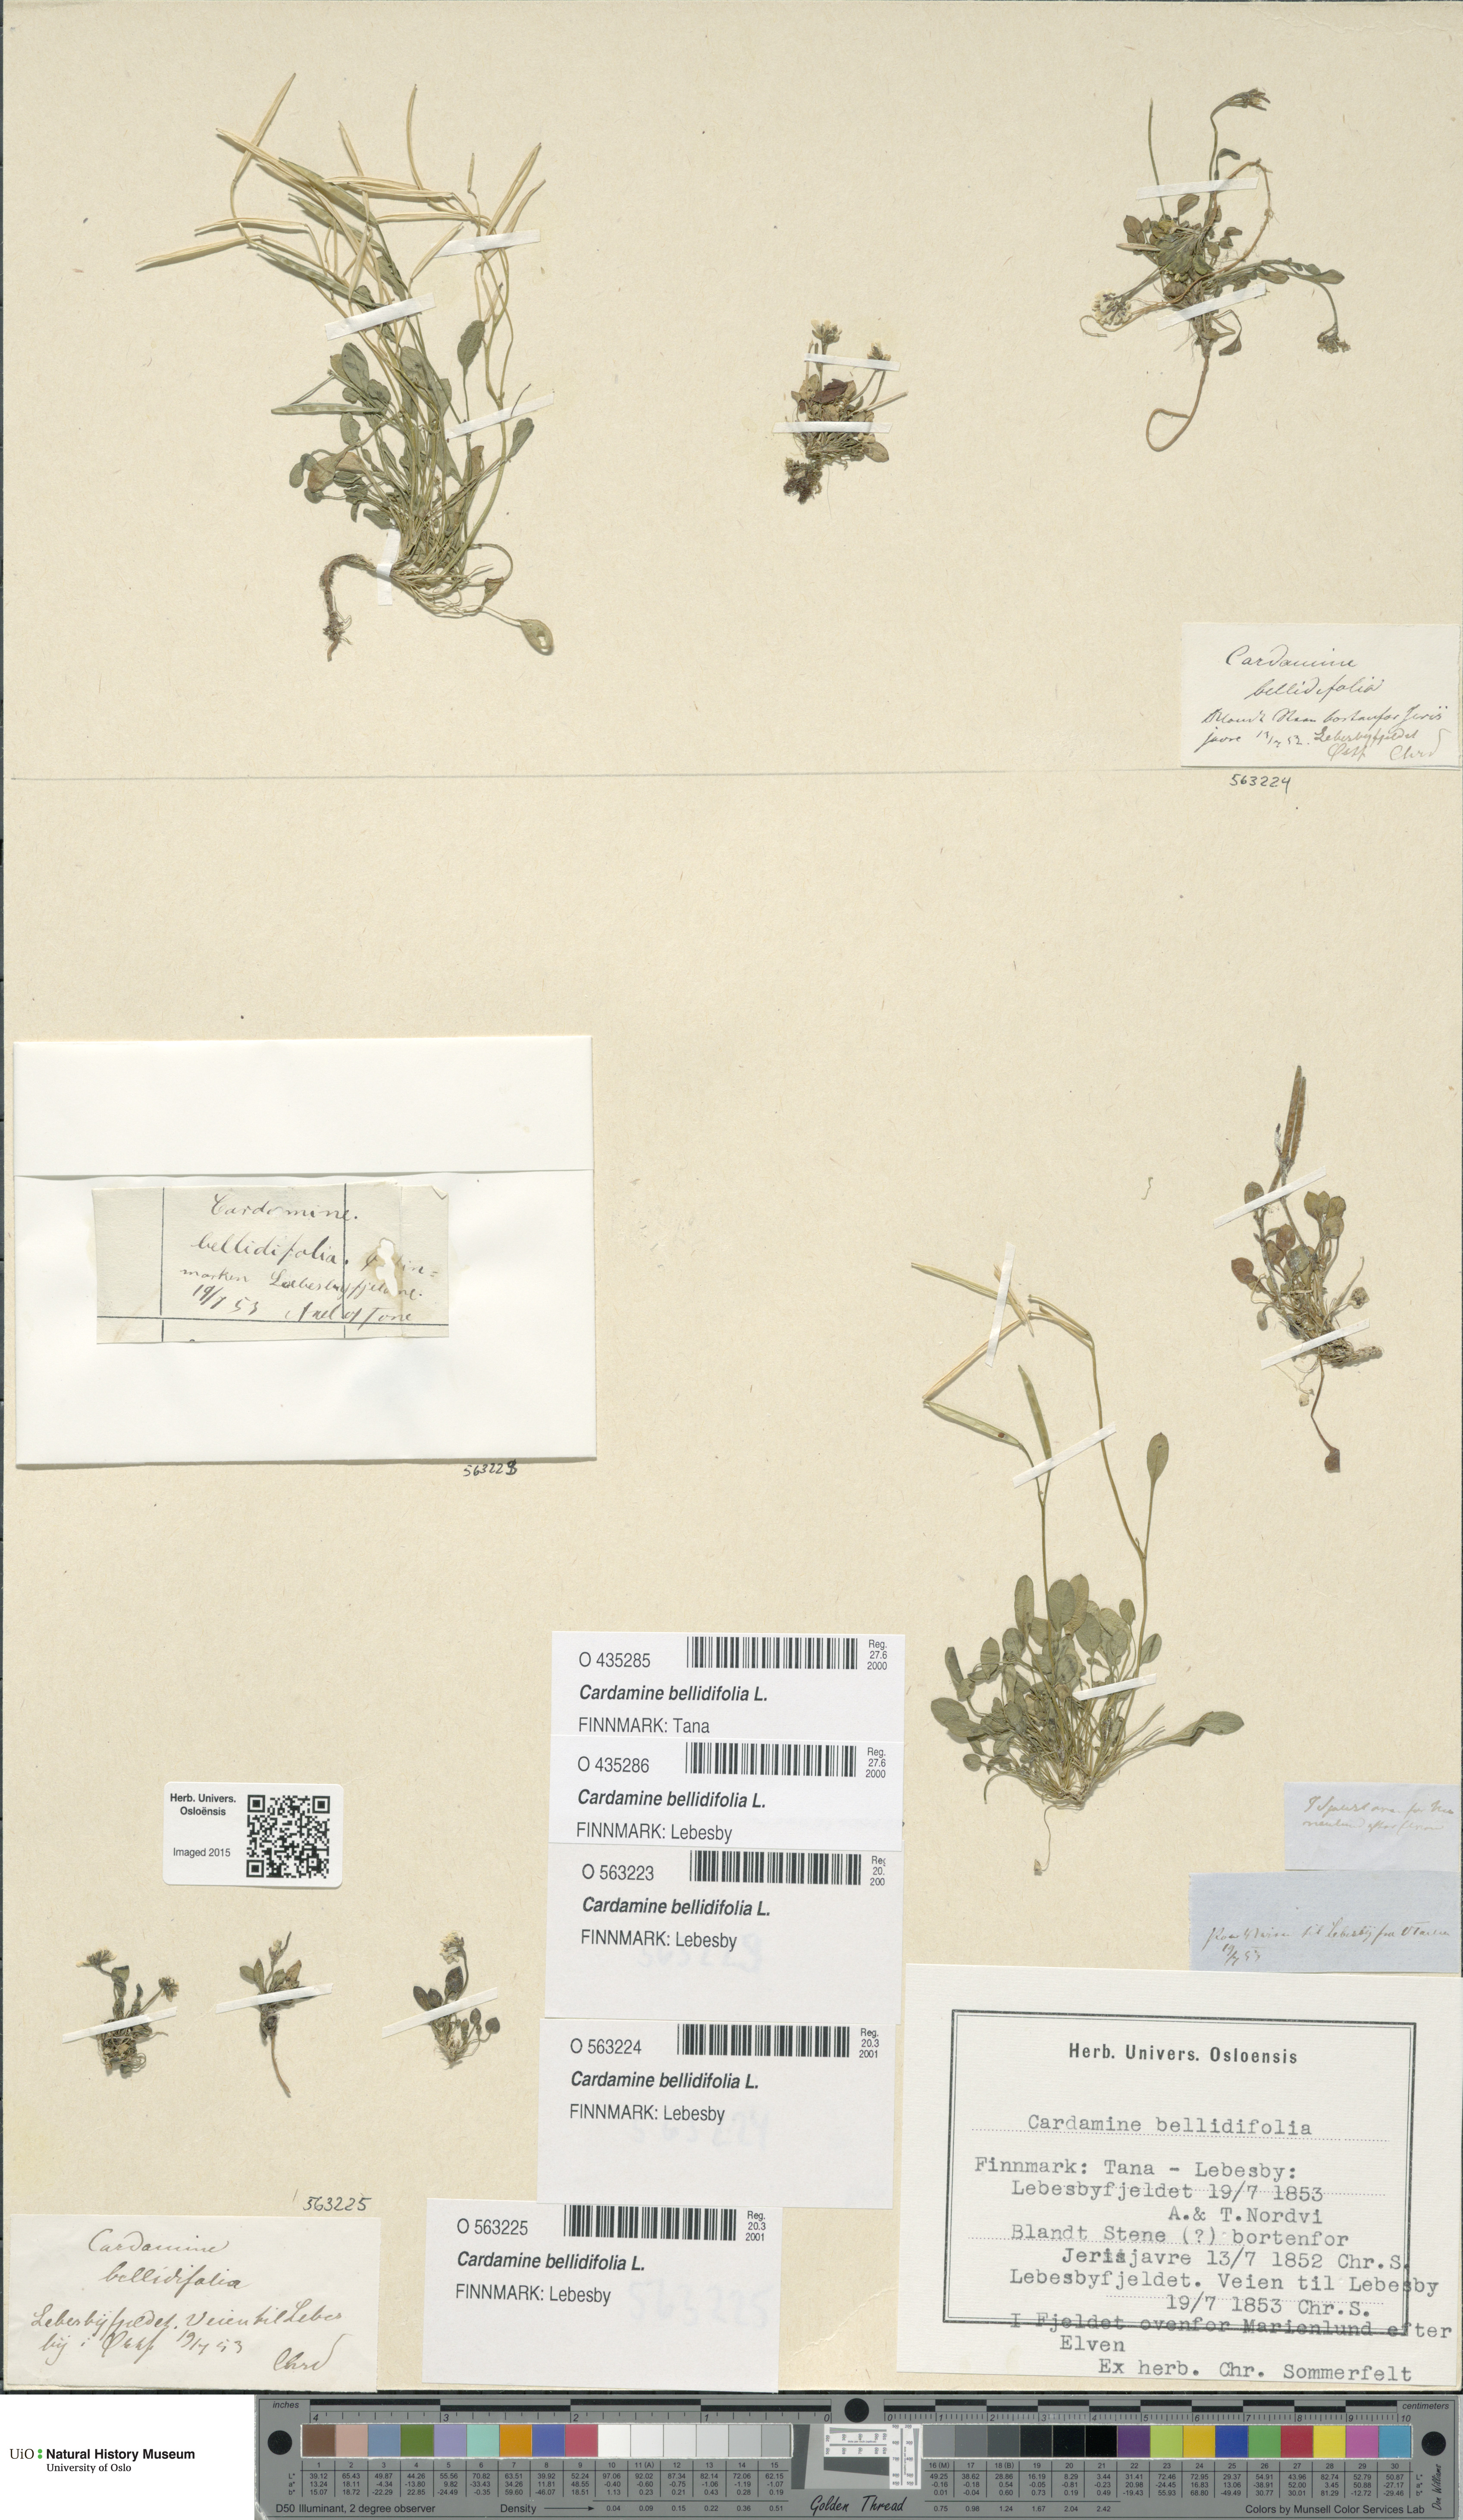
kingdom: Plantae
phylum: Tracheophyta
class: Magnoliopsida
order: Brassicales
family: Brassicaceae
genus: Cardamine
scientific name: Cardamine bellidifolia
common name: Alpine bittercress
